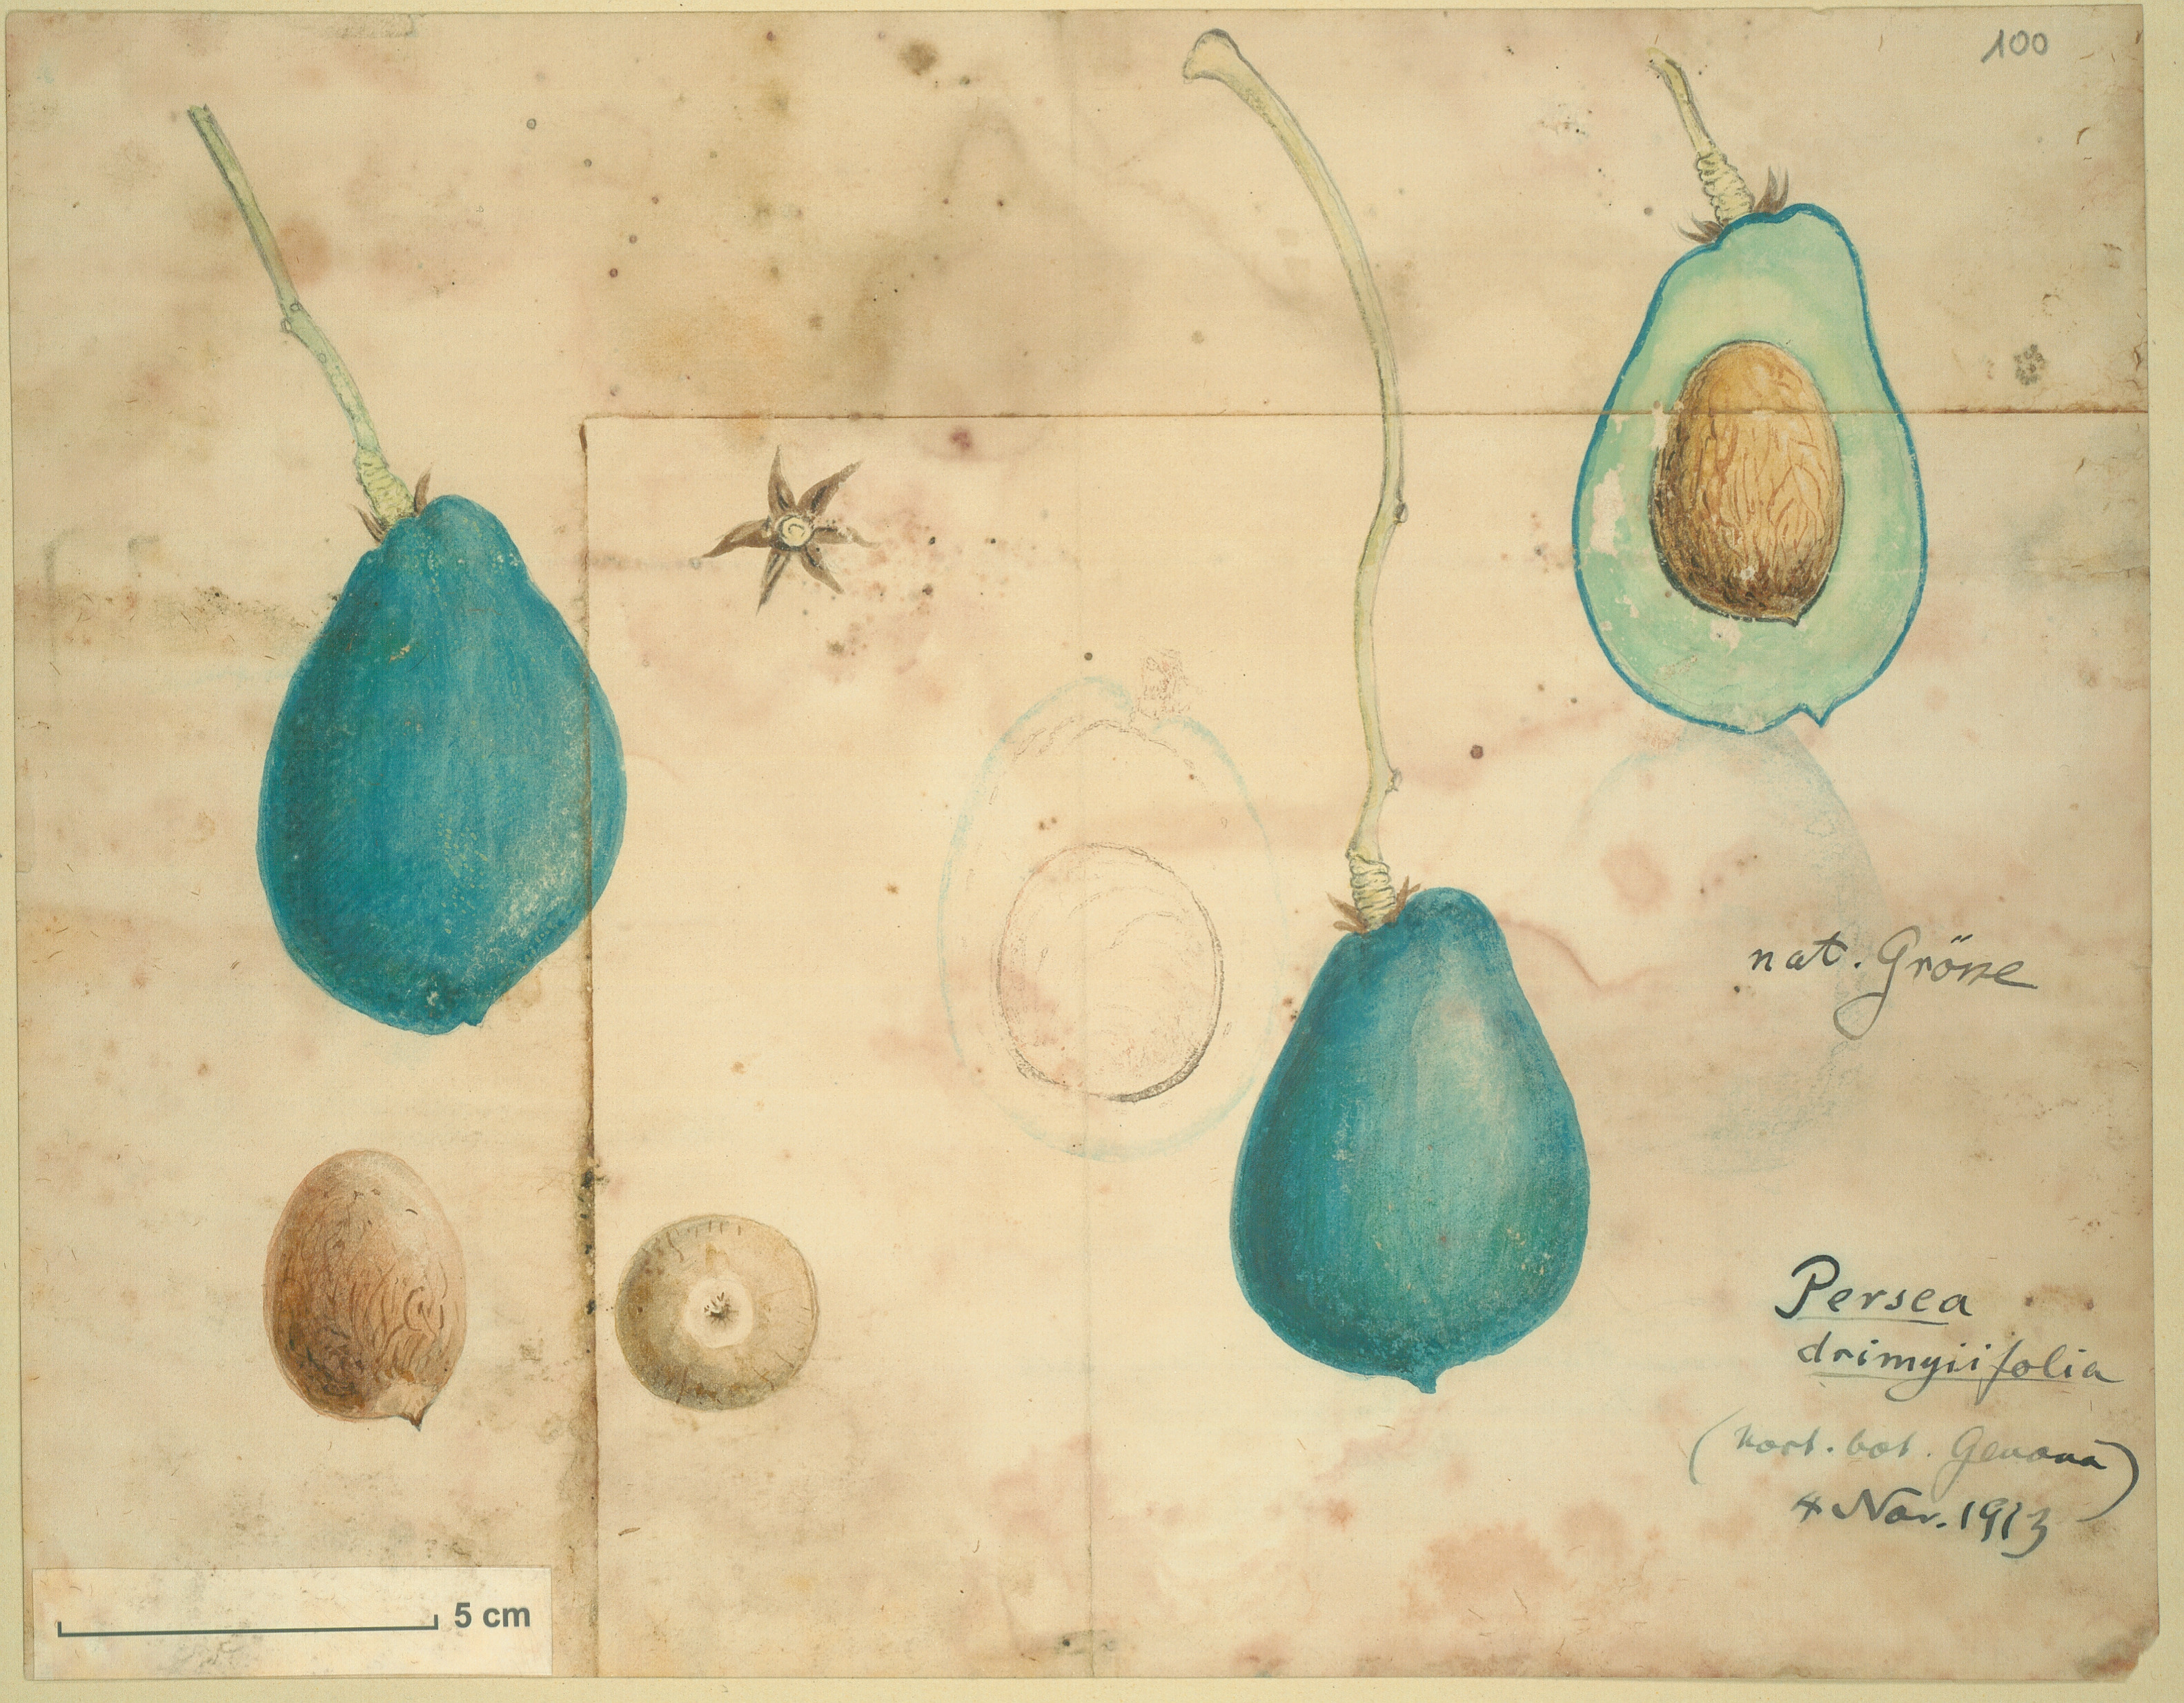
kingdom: Plantae
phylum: Tracheophyta
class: Magnoliopsida
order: Laurales
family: Lauraceae
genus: Persea
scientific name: Persea americana
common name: Avocado
